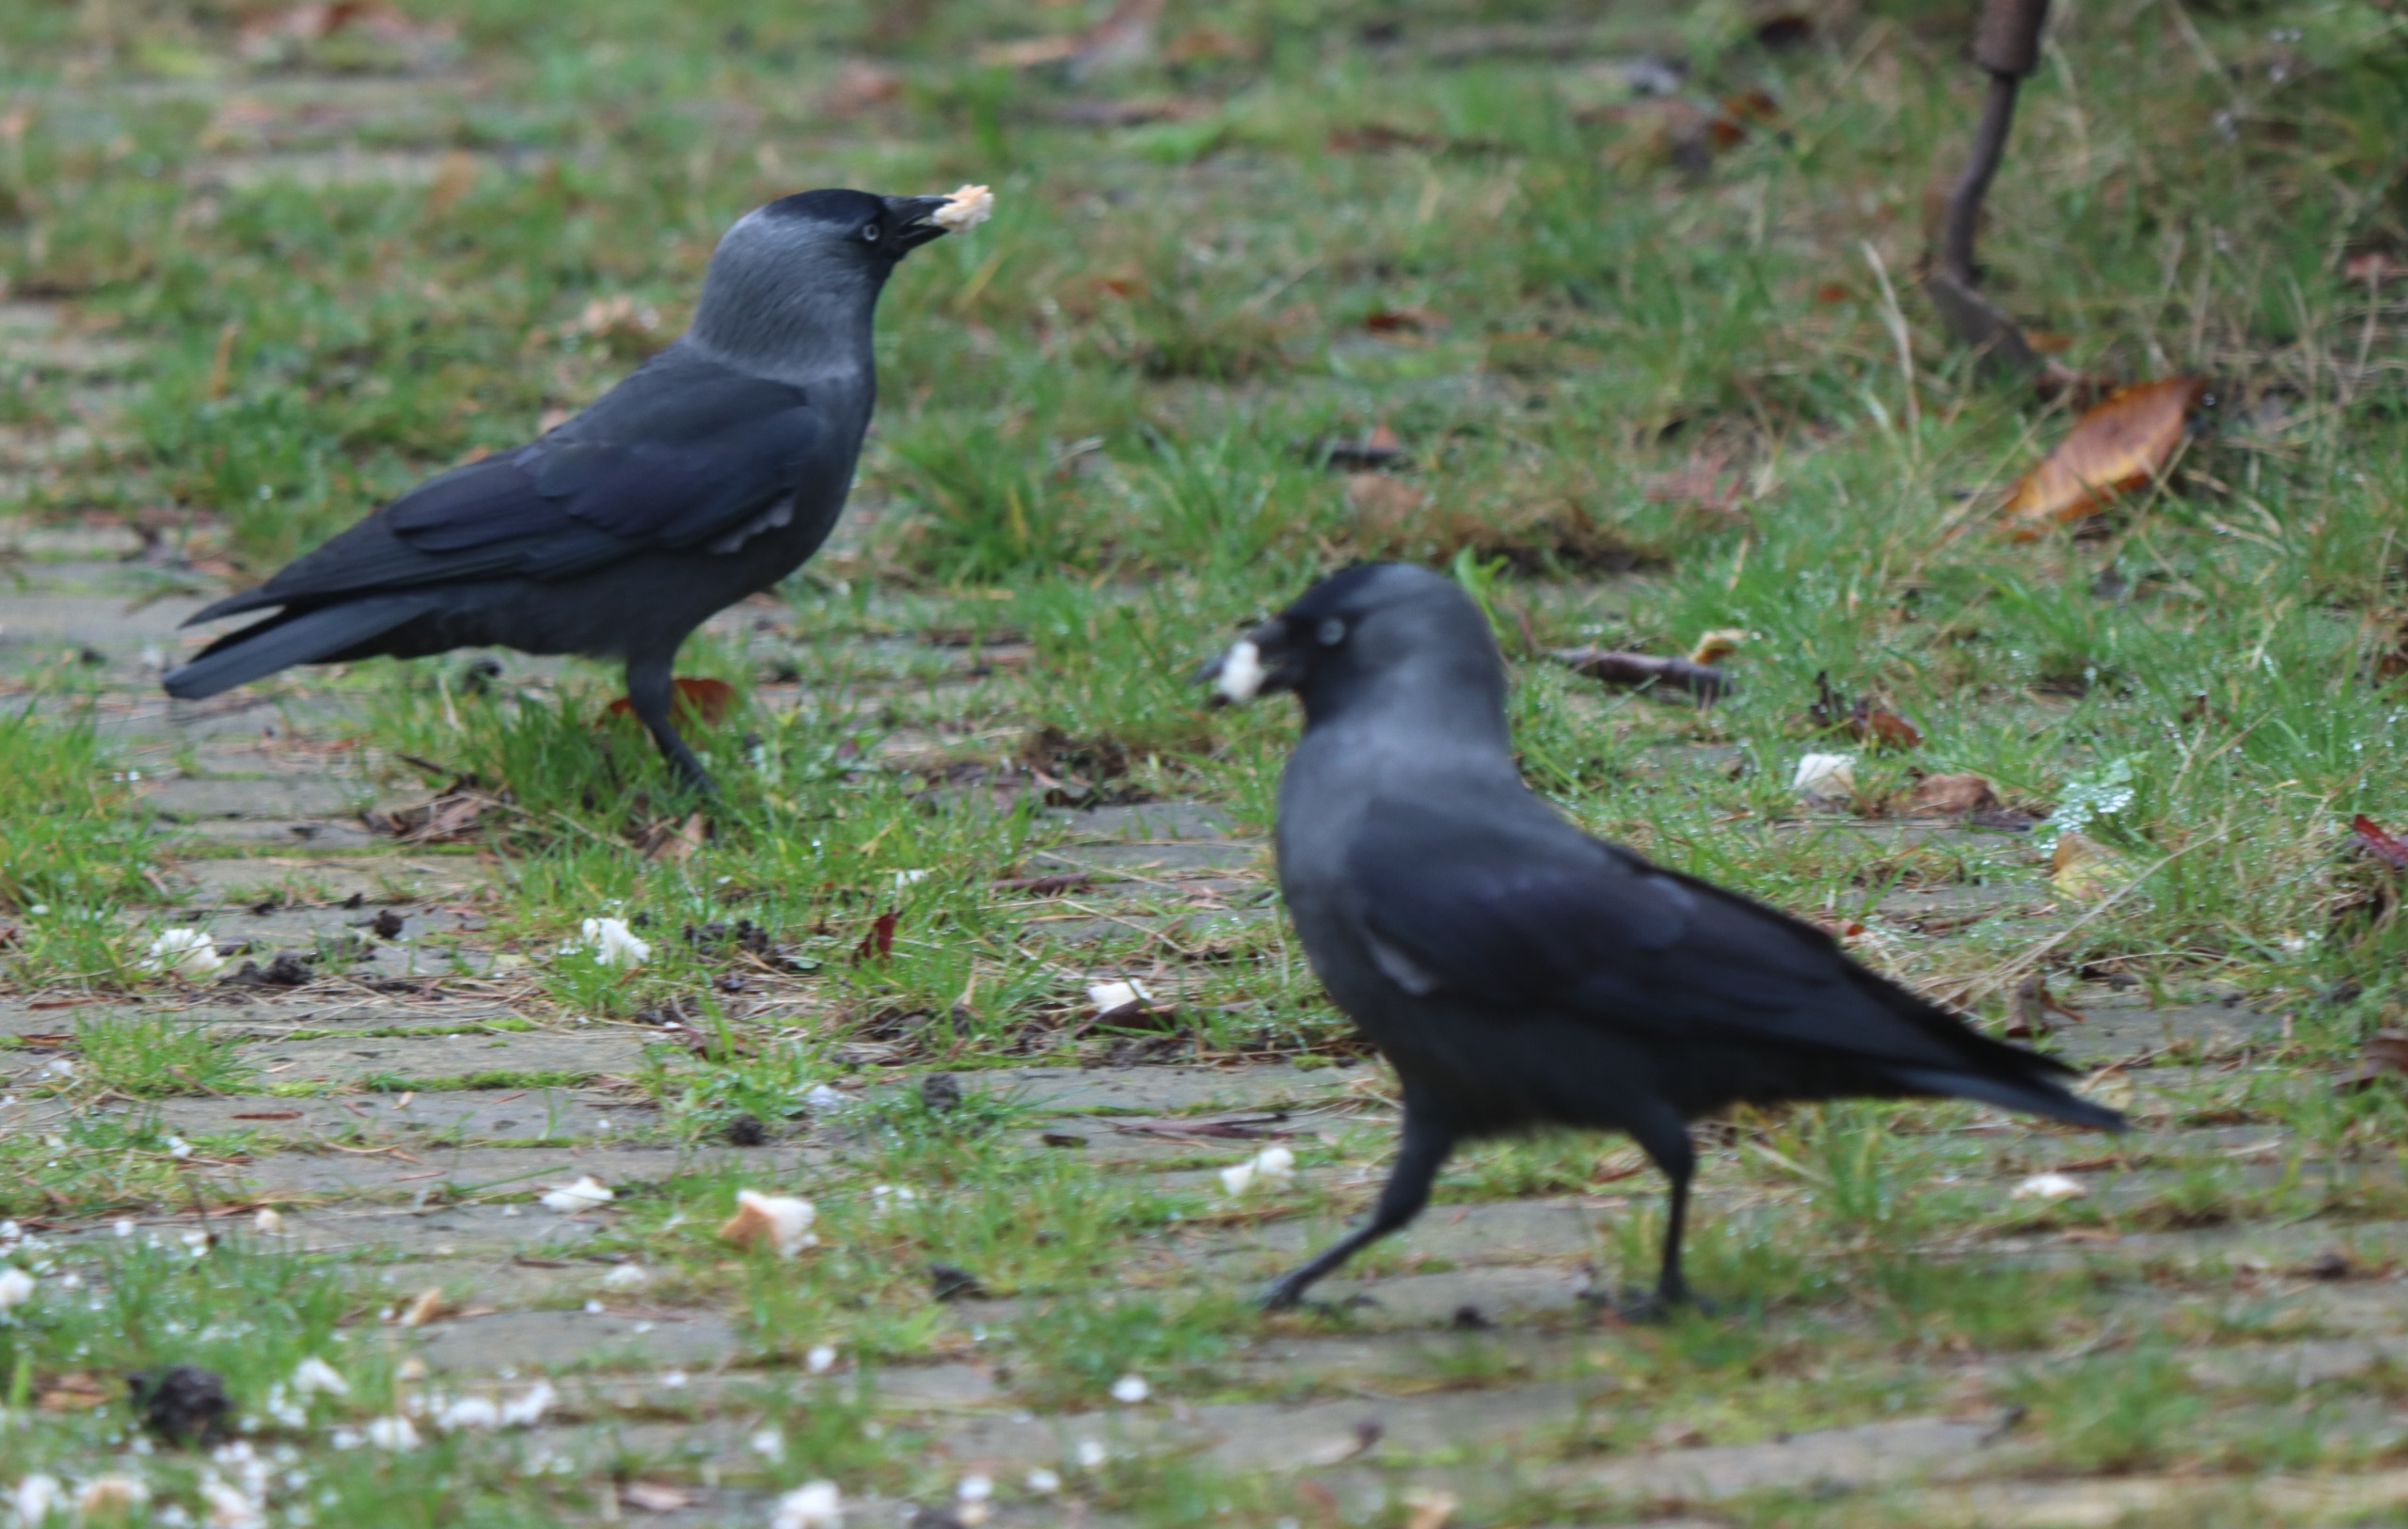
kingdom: Animalia
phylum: Chordata
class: Aves
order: Passeriformes
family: Corvidae
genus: Coloeus
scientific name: Coloeus monedula
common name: Allike
